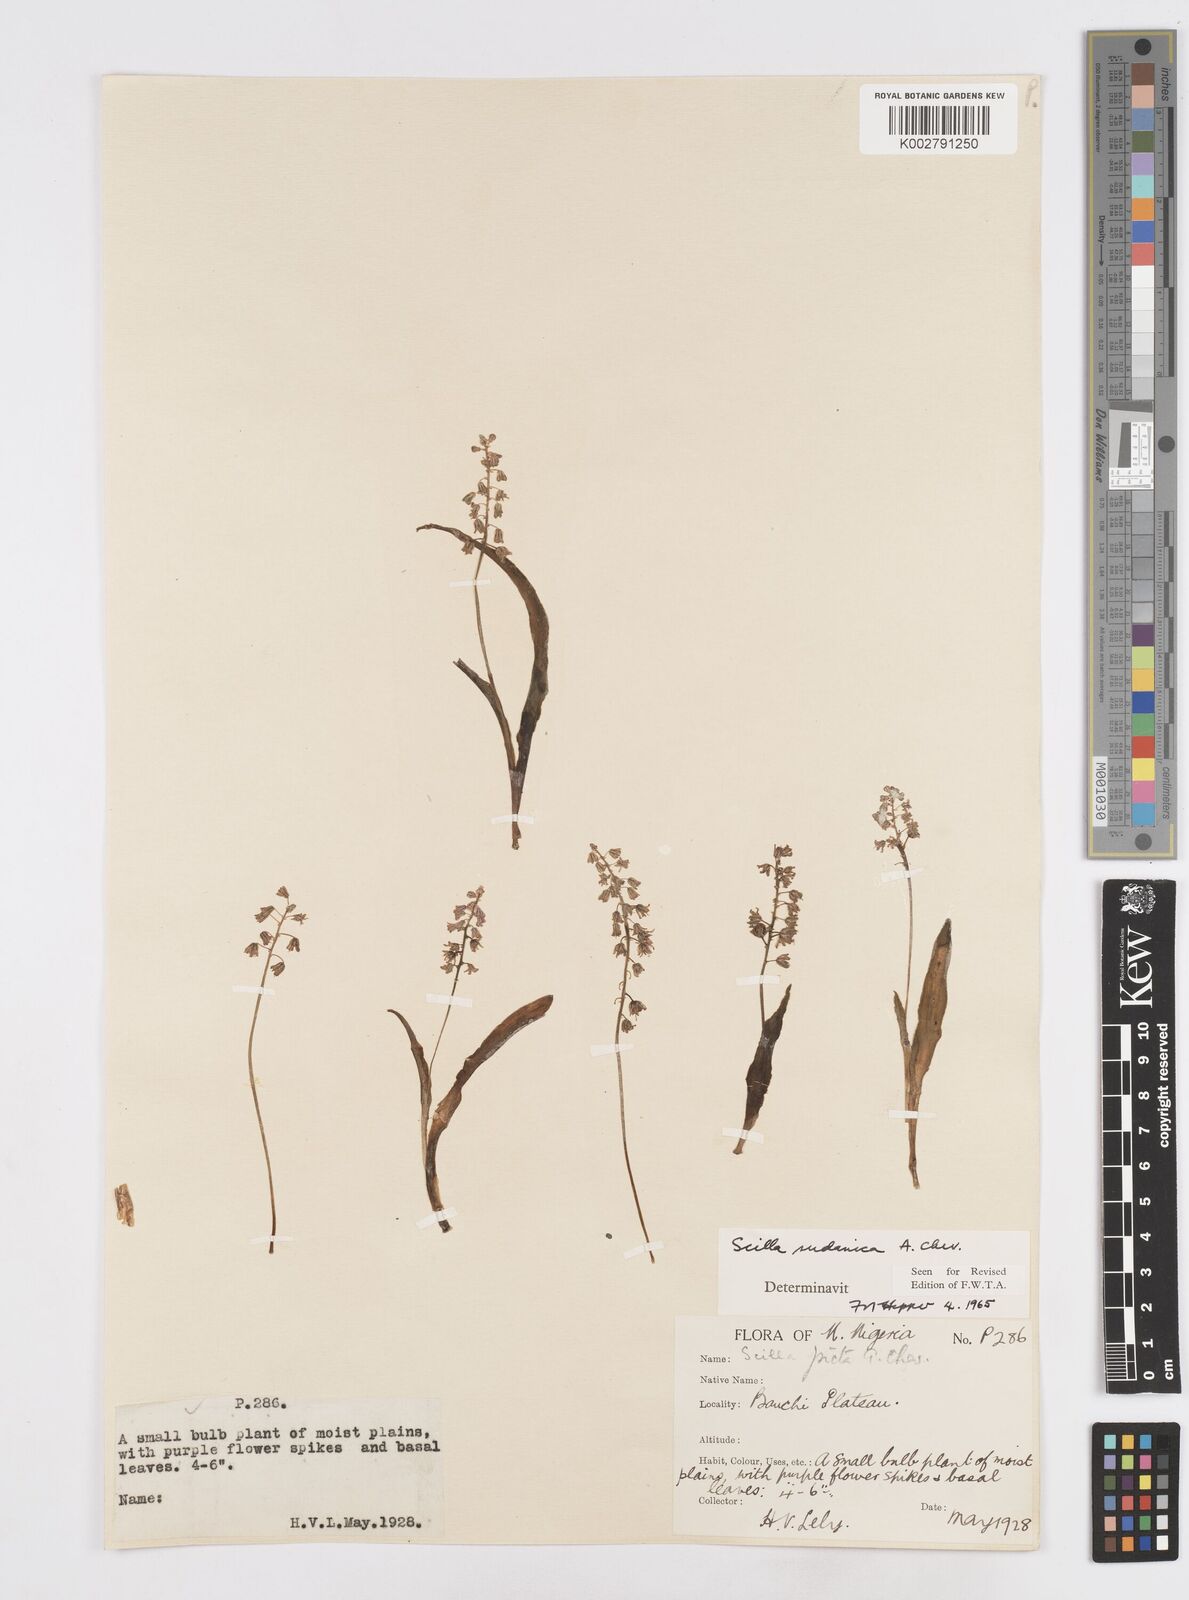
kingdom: Plantae
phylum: Tracheophyta
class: Liliopsida
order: Asparagales
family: Asparagaceae
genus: Ledebouria
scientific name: Ledebouria sudanica
